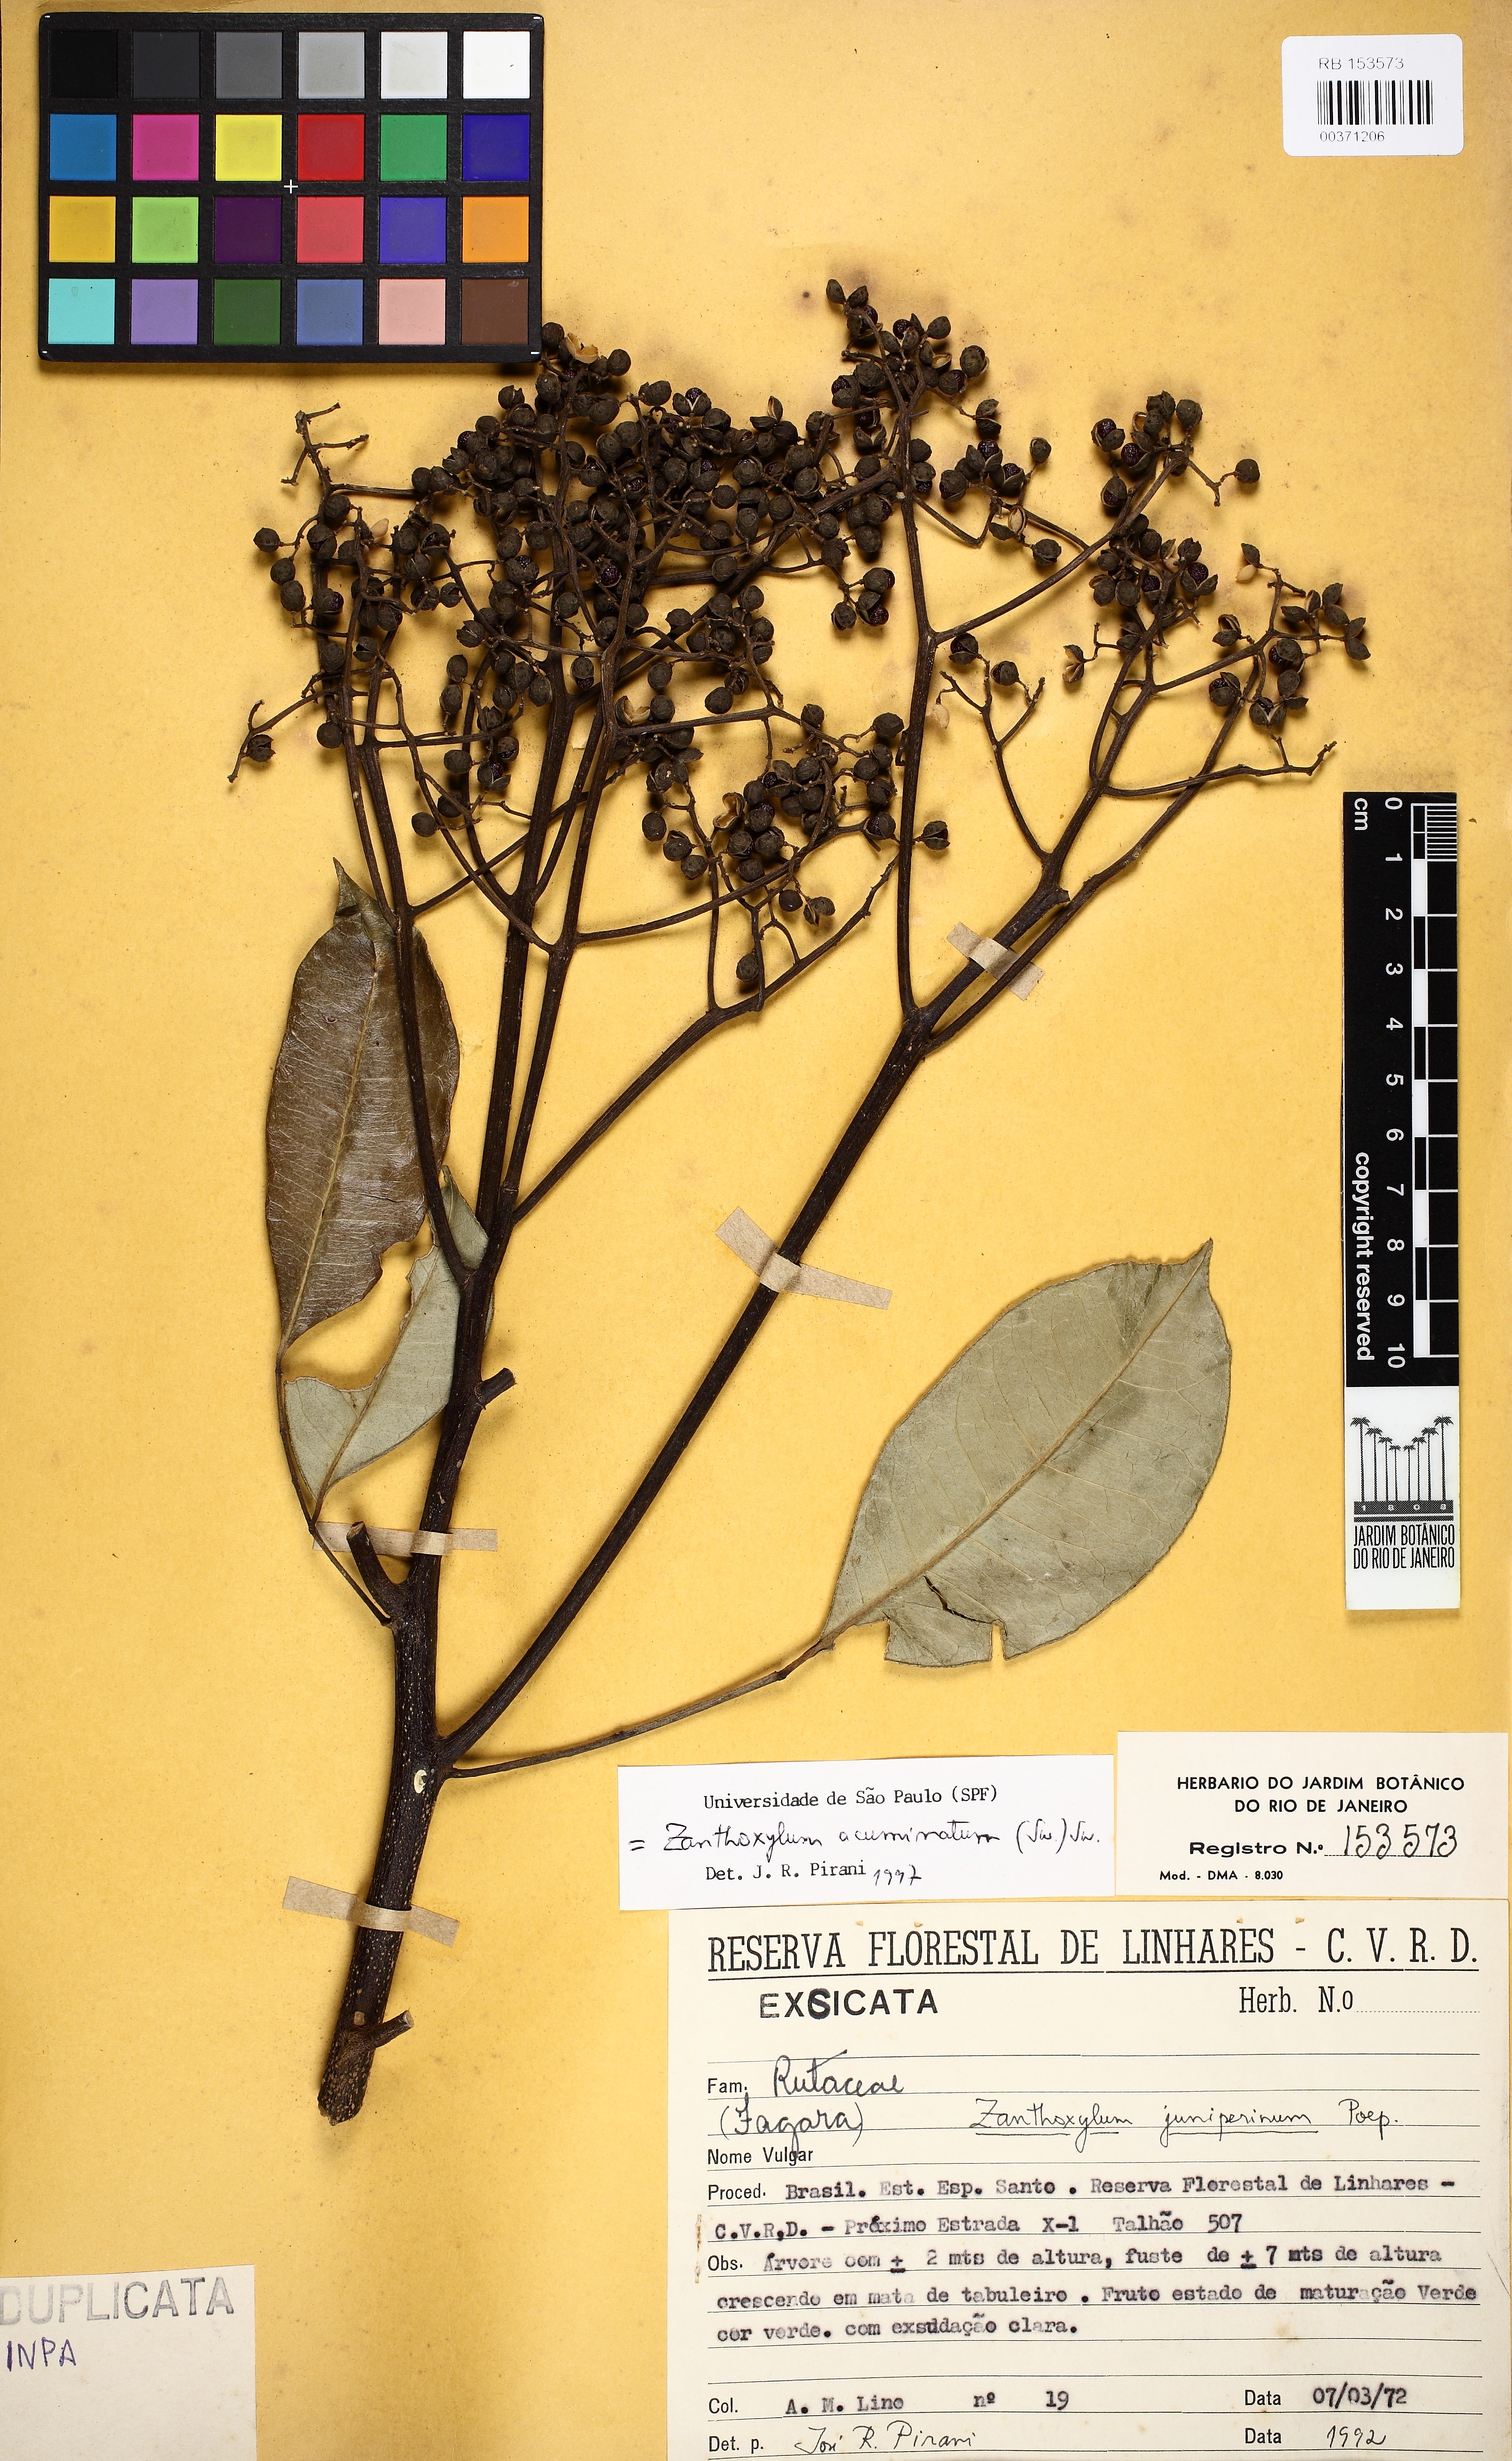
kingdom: Plantae
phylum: Tracheophyta
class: Magnoliopsida
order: Sapindales
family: Rutaceae
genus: Zanthoxylum
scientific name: Zanthoxylum acuminatum
